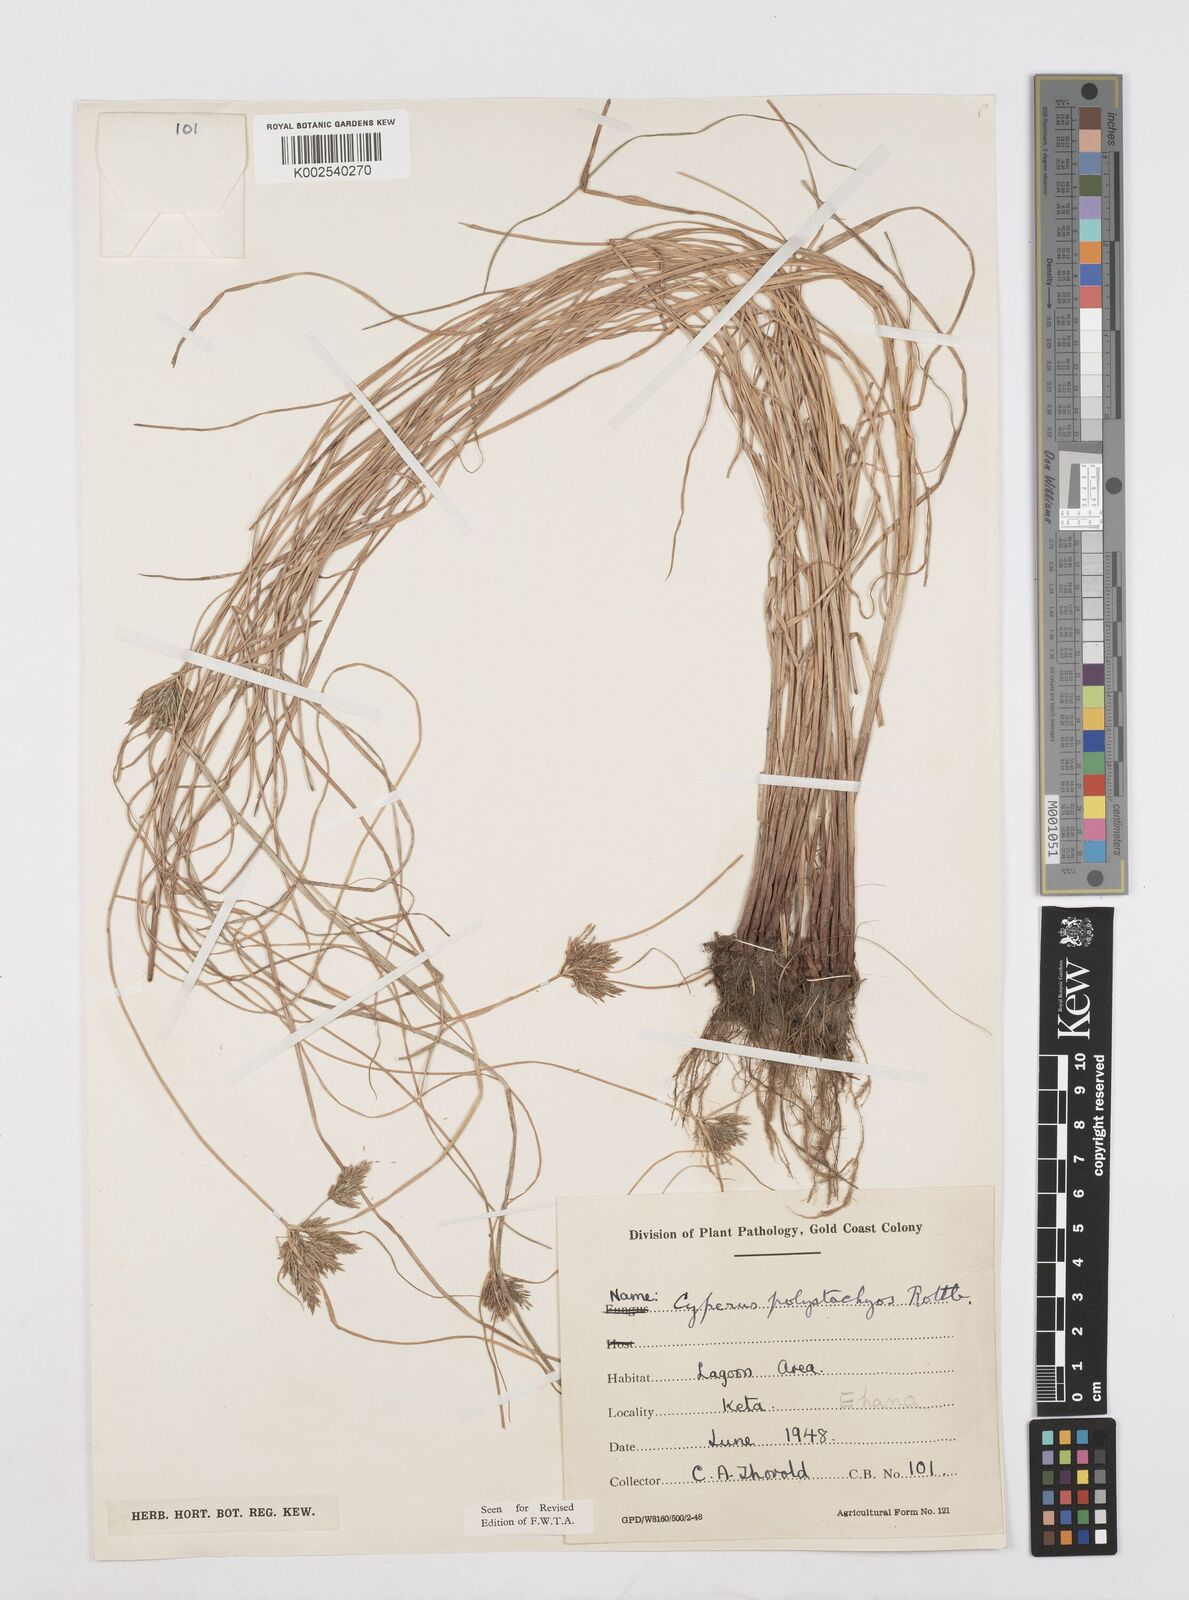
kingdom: Plantae
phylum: Tracheophyta
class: Liliopsida
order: Poales
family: Cyperaceae
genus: Cyperus
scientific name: Cyperus polystachyos
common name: Bunchy flat sedge
